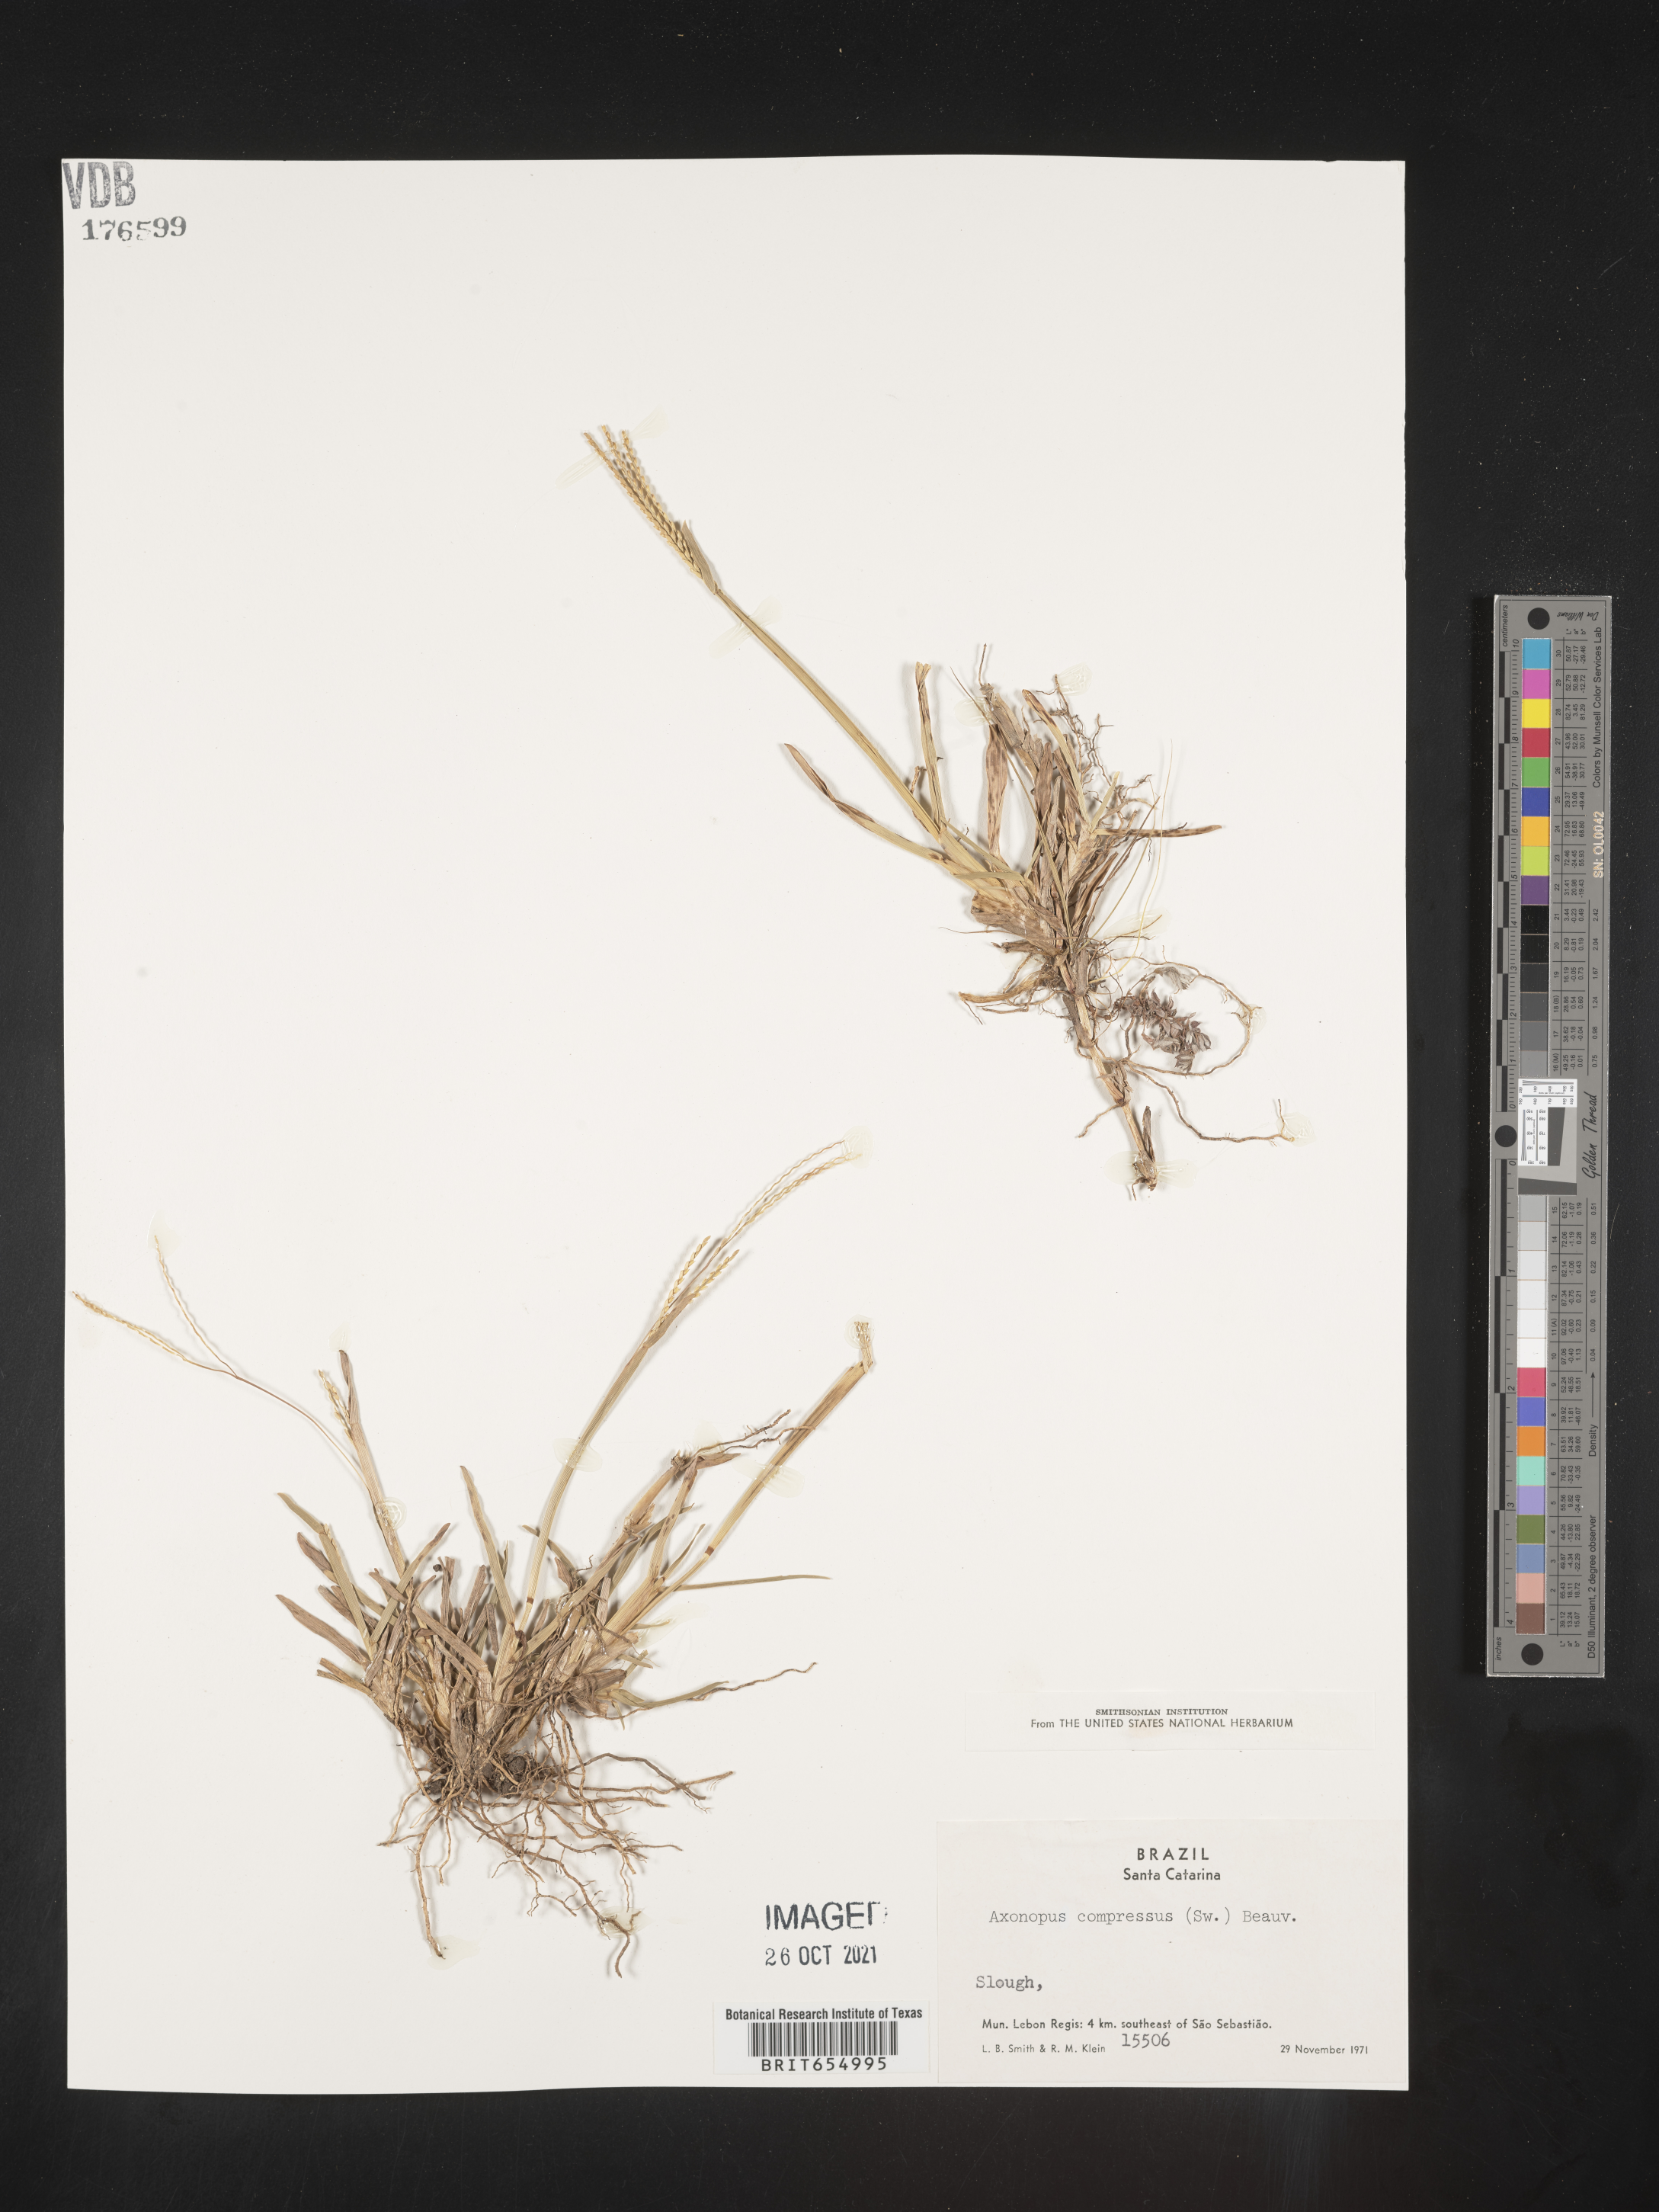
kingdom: Plantae
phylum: Tracheophyta
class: Liliopsida
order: Poales
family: Poaceae
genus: Axonopus
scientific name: Axonopus
